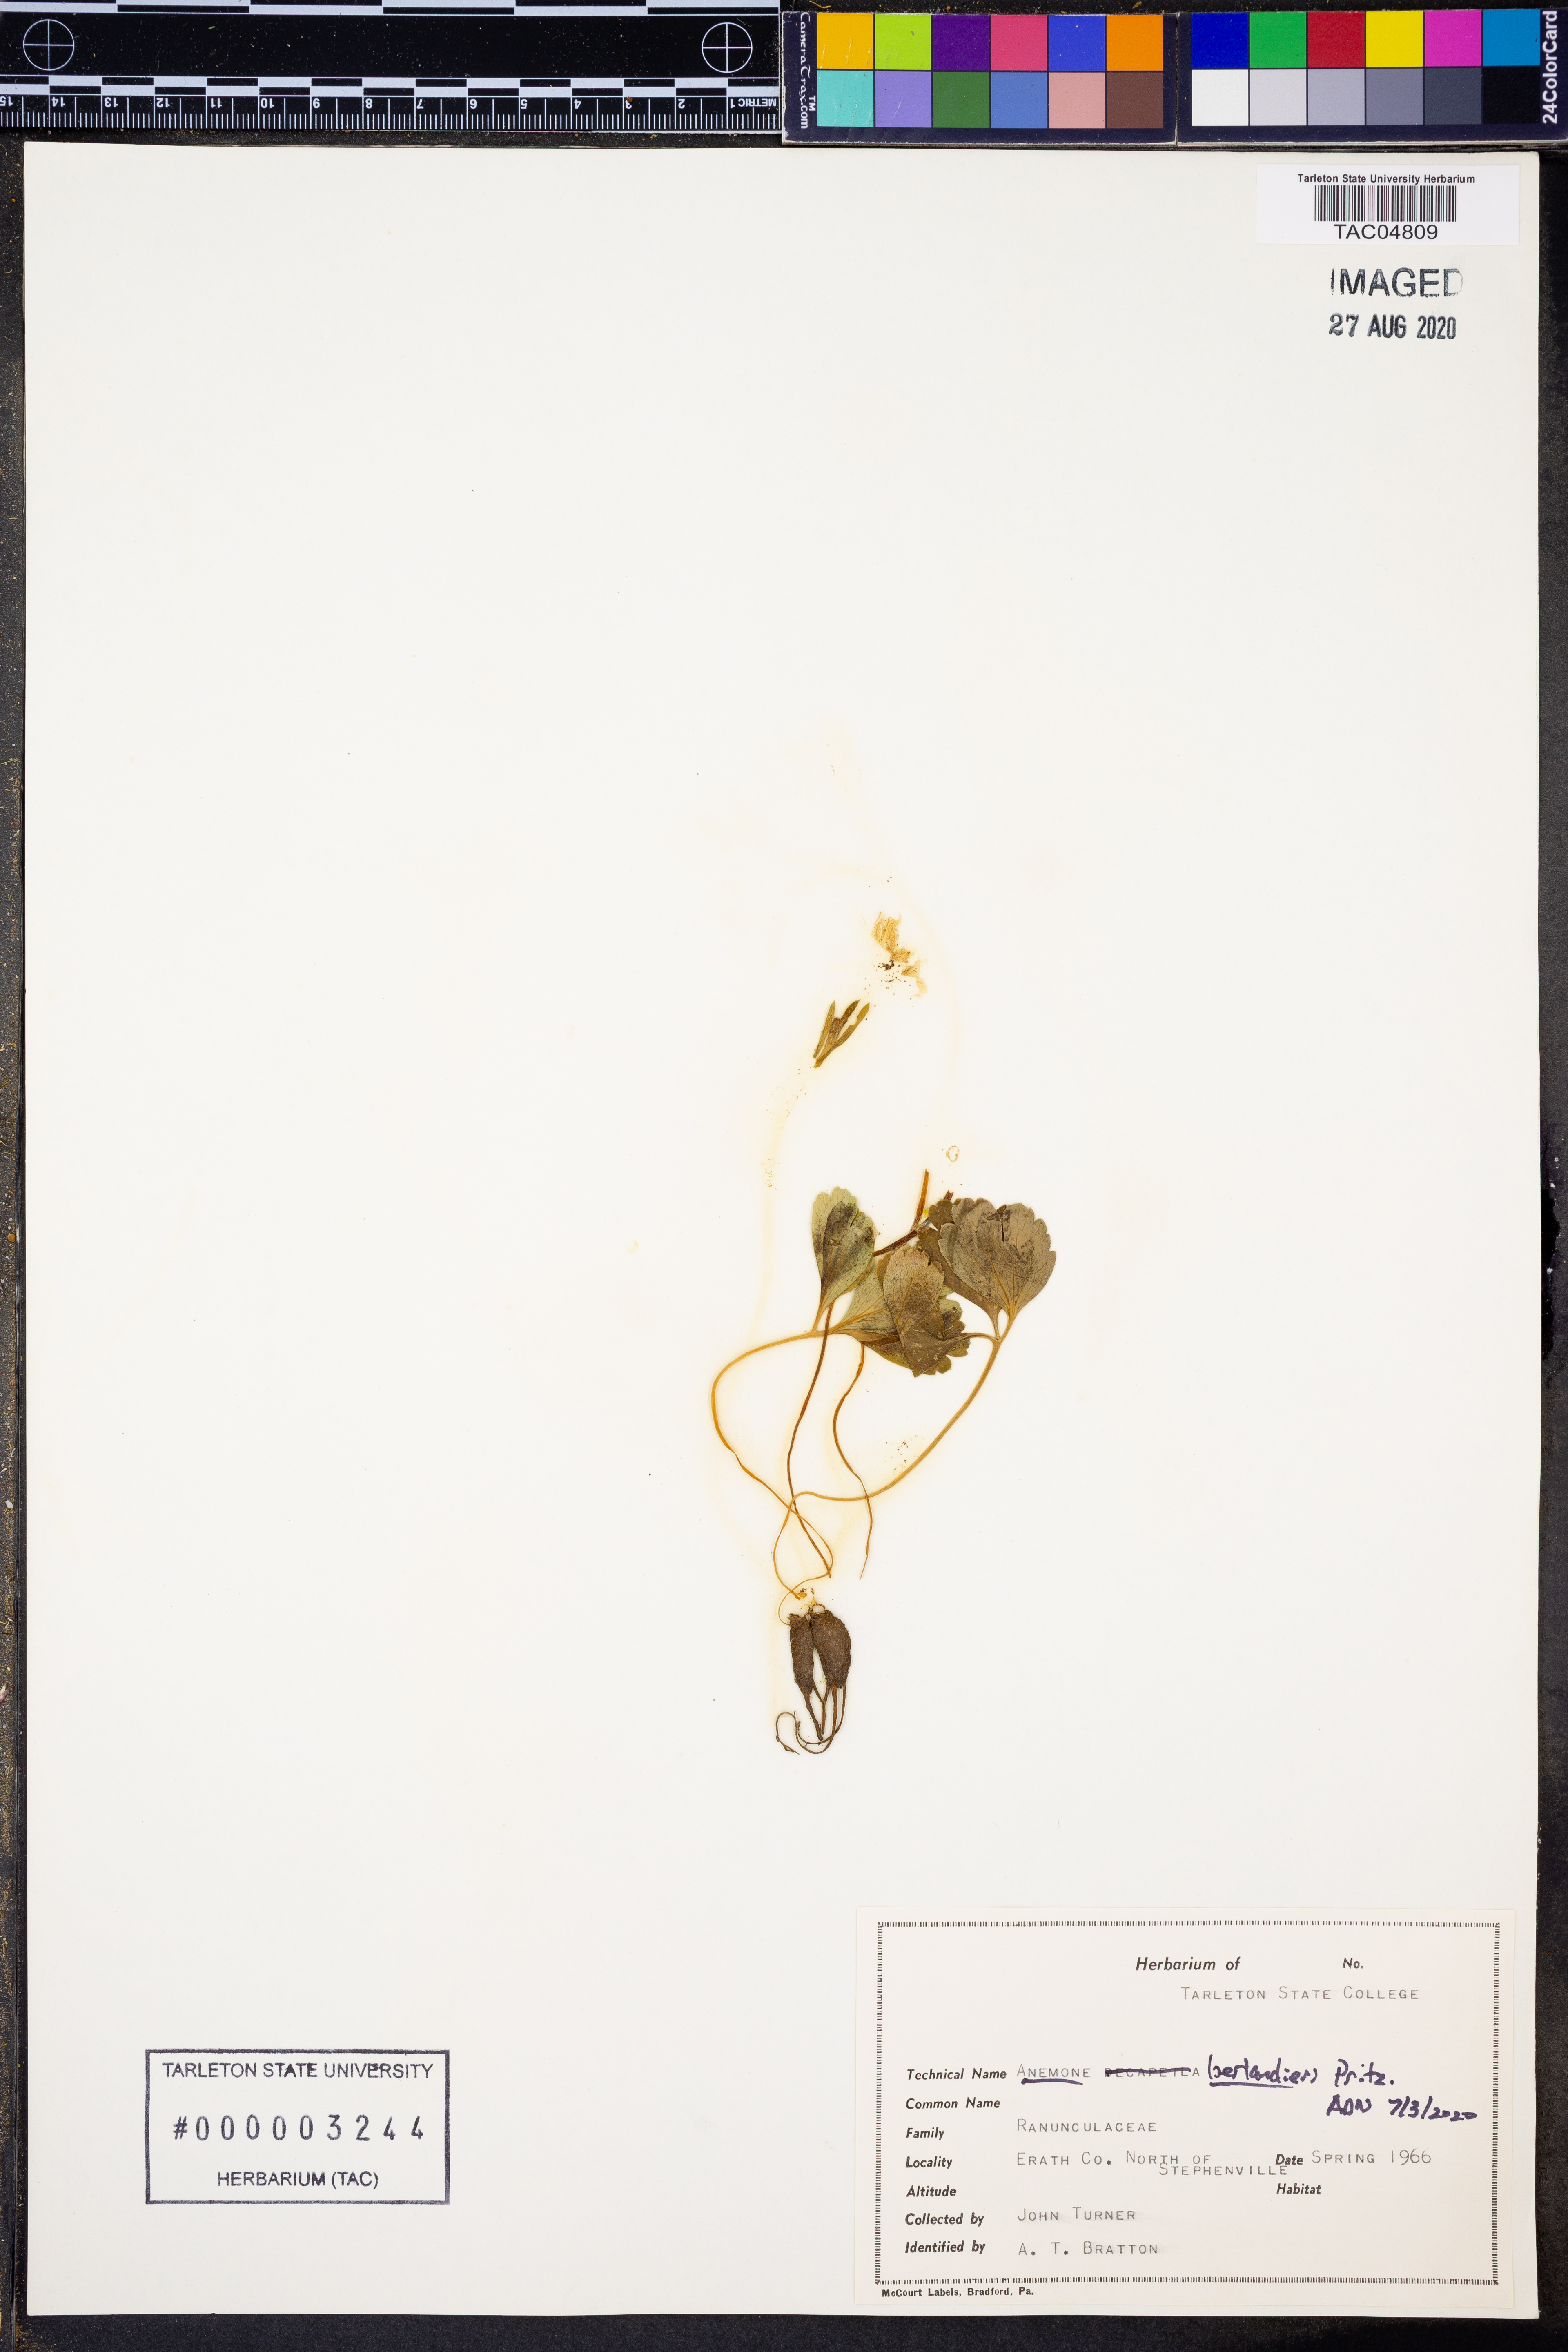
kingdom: Plantae
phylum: Tracheophyta
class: Magnoliopsida
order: Ranunculales
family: Ranunculaceae
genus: Anemone
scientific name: Anemone berlandieri
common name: Ten-petal anemone
